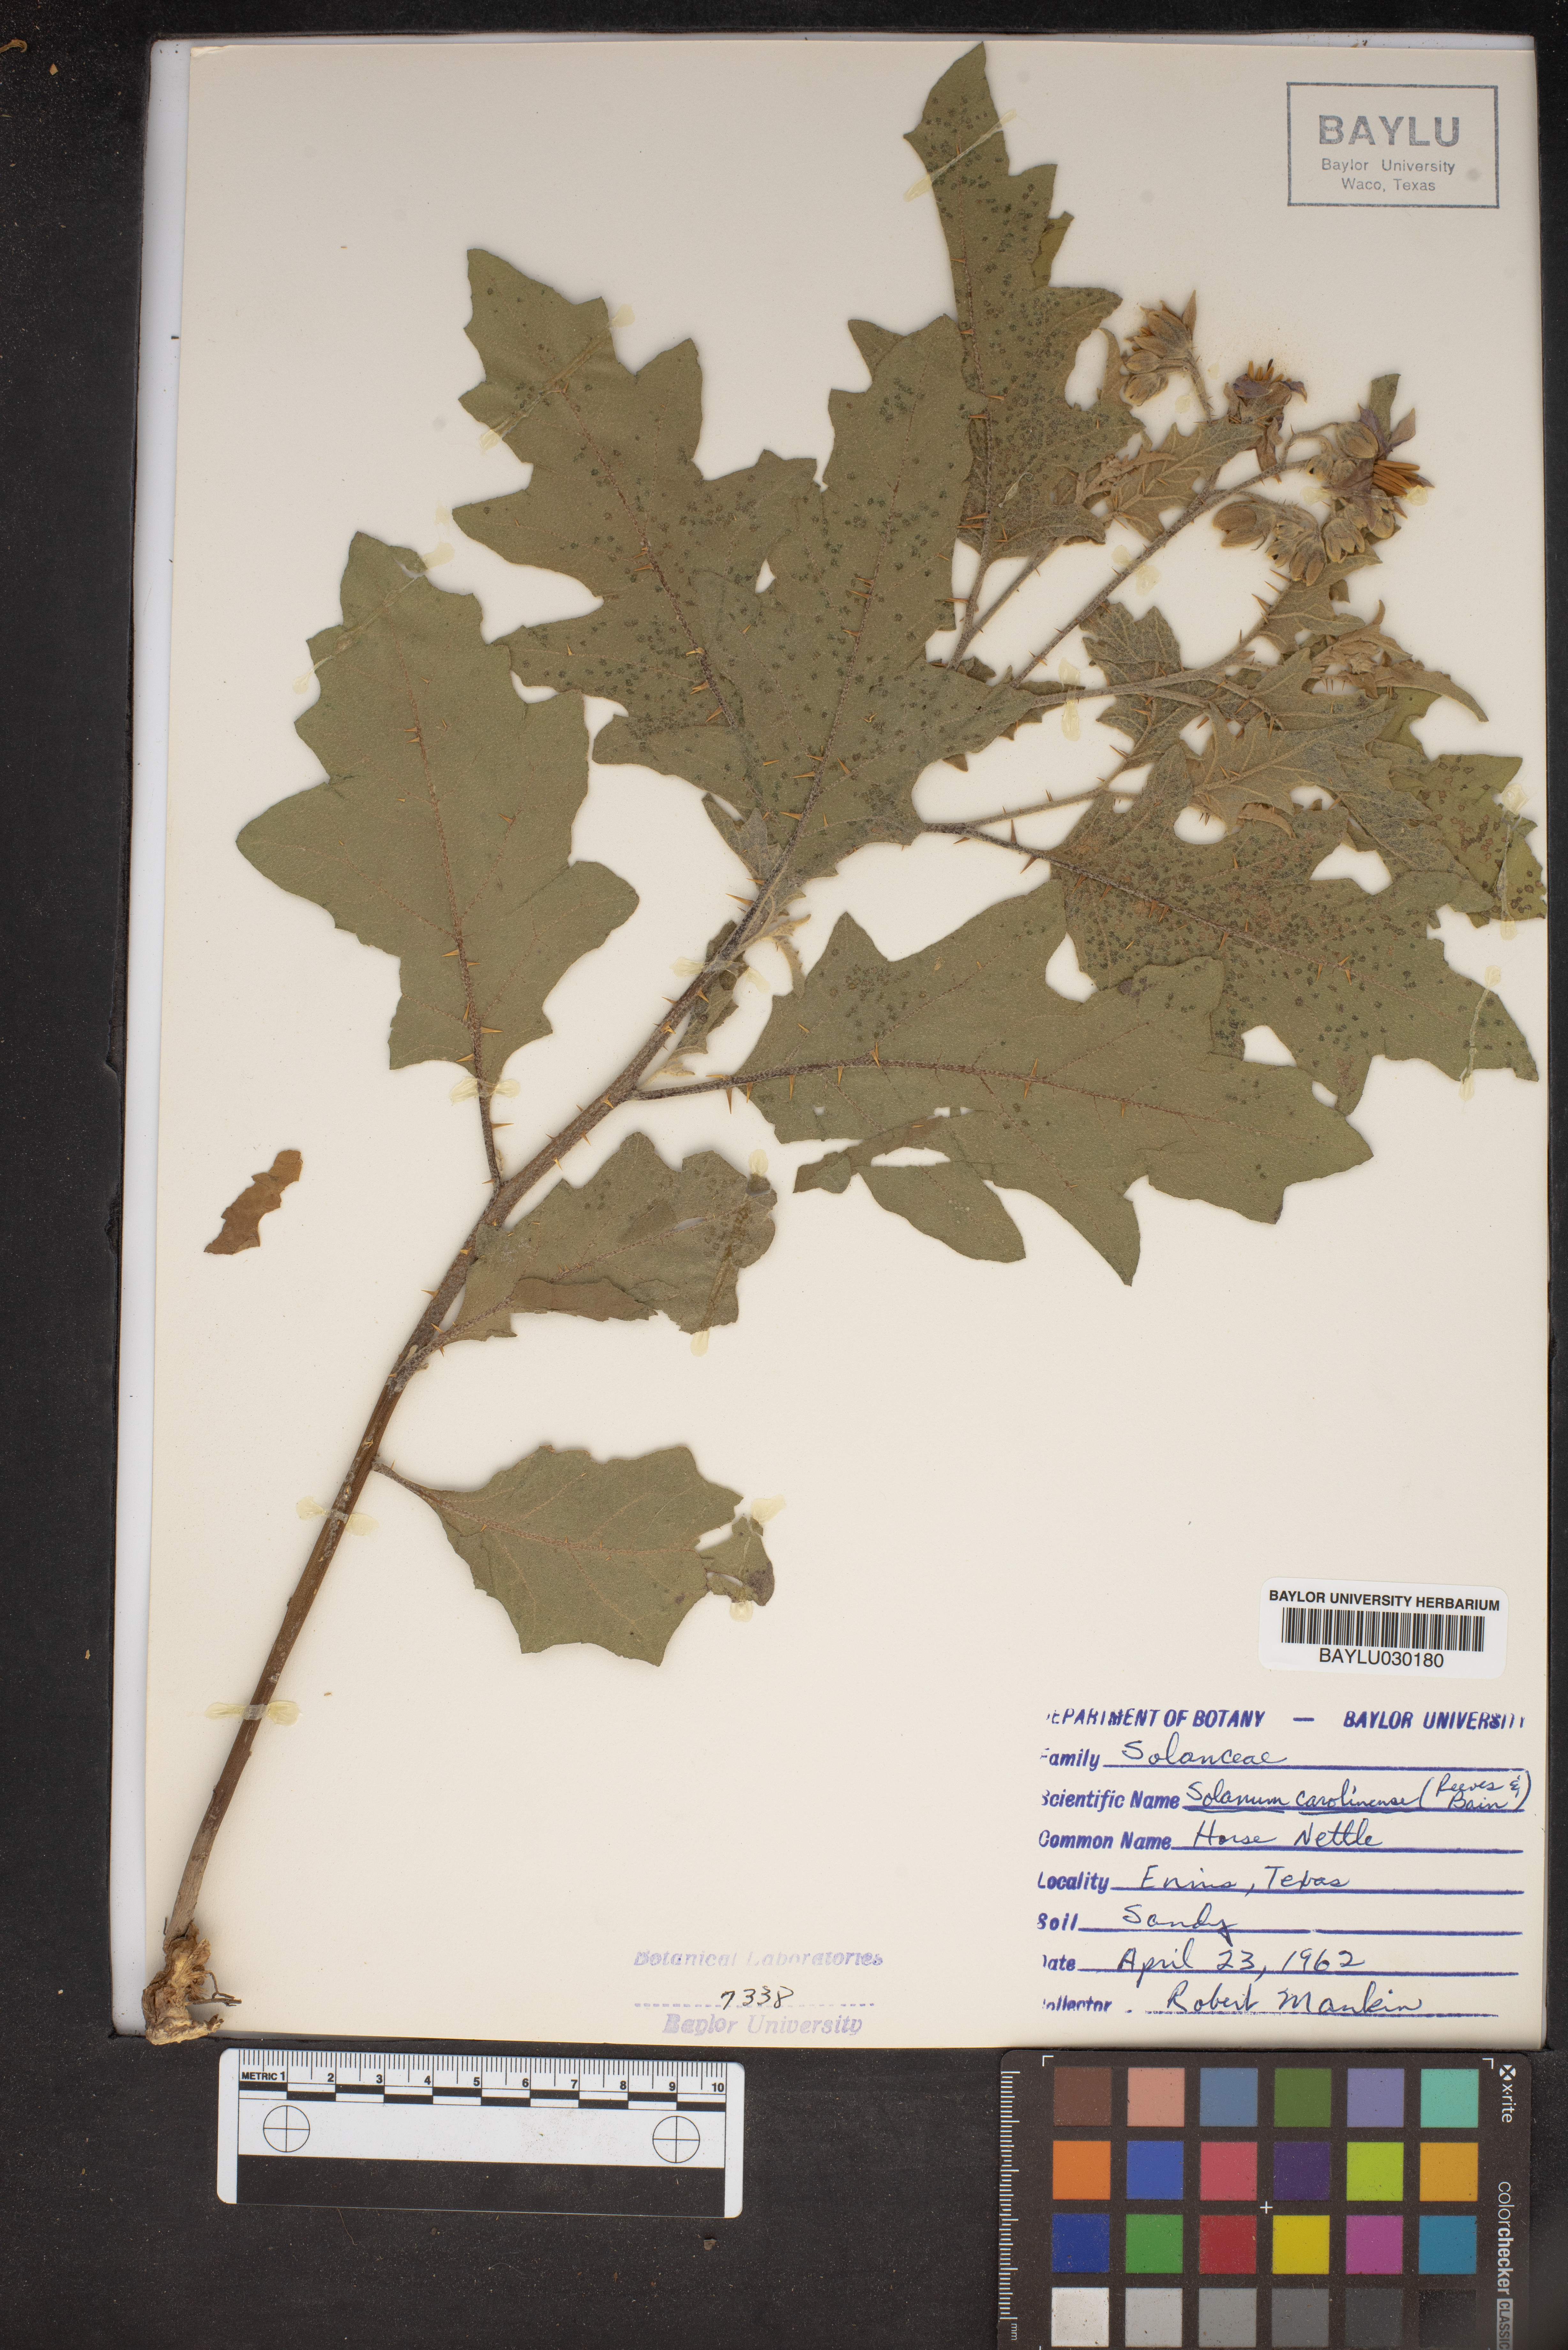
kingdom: Plantae
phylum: Tracheophyta
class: Magnoliopsida
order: Solanales
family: Solanaceae
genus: Solanum
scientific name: Solanum carolinense
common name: Horse-nettle
